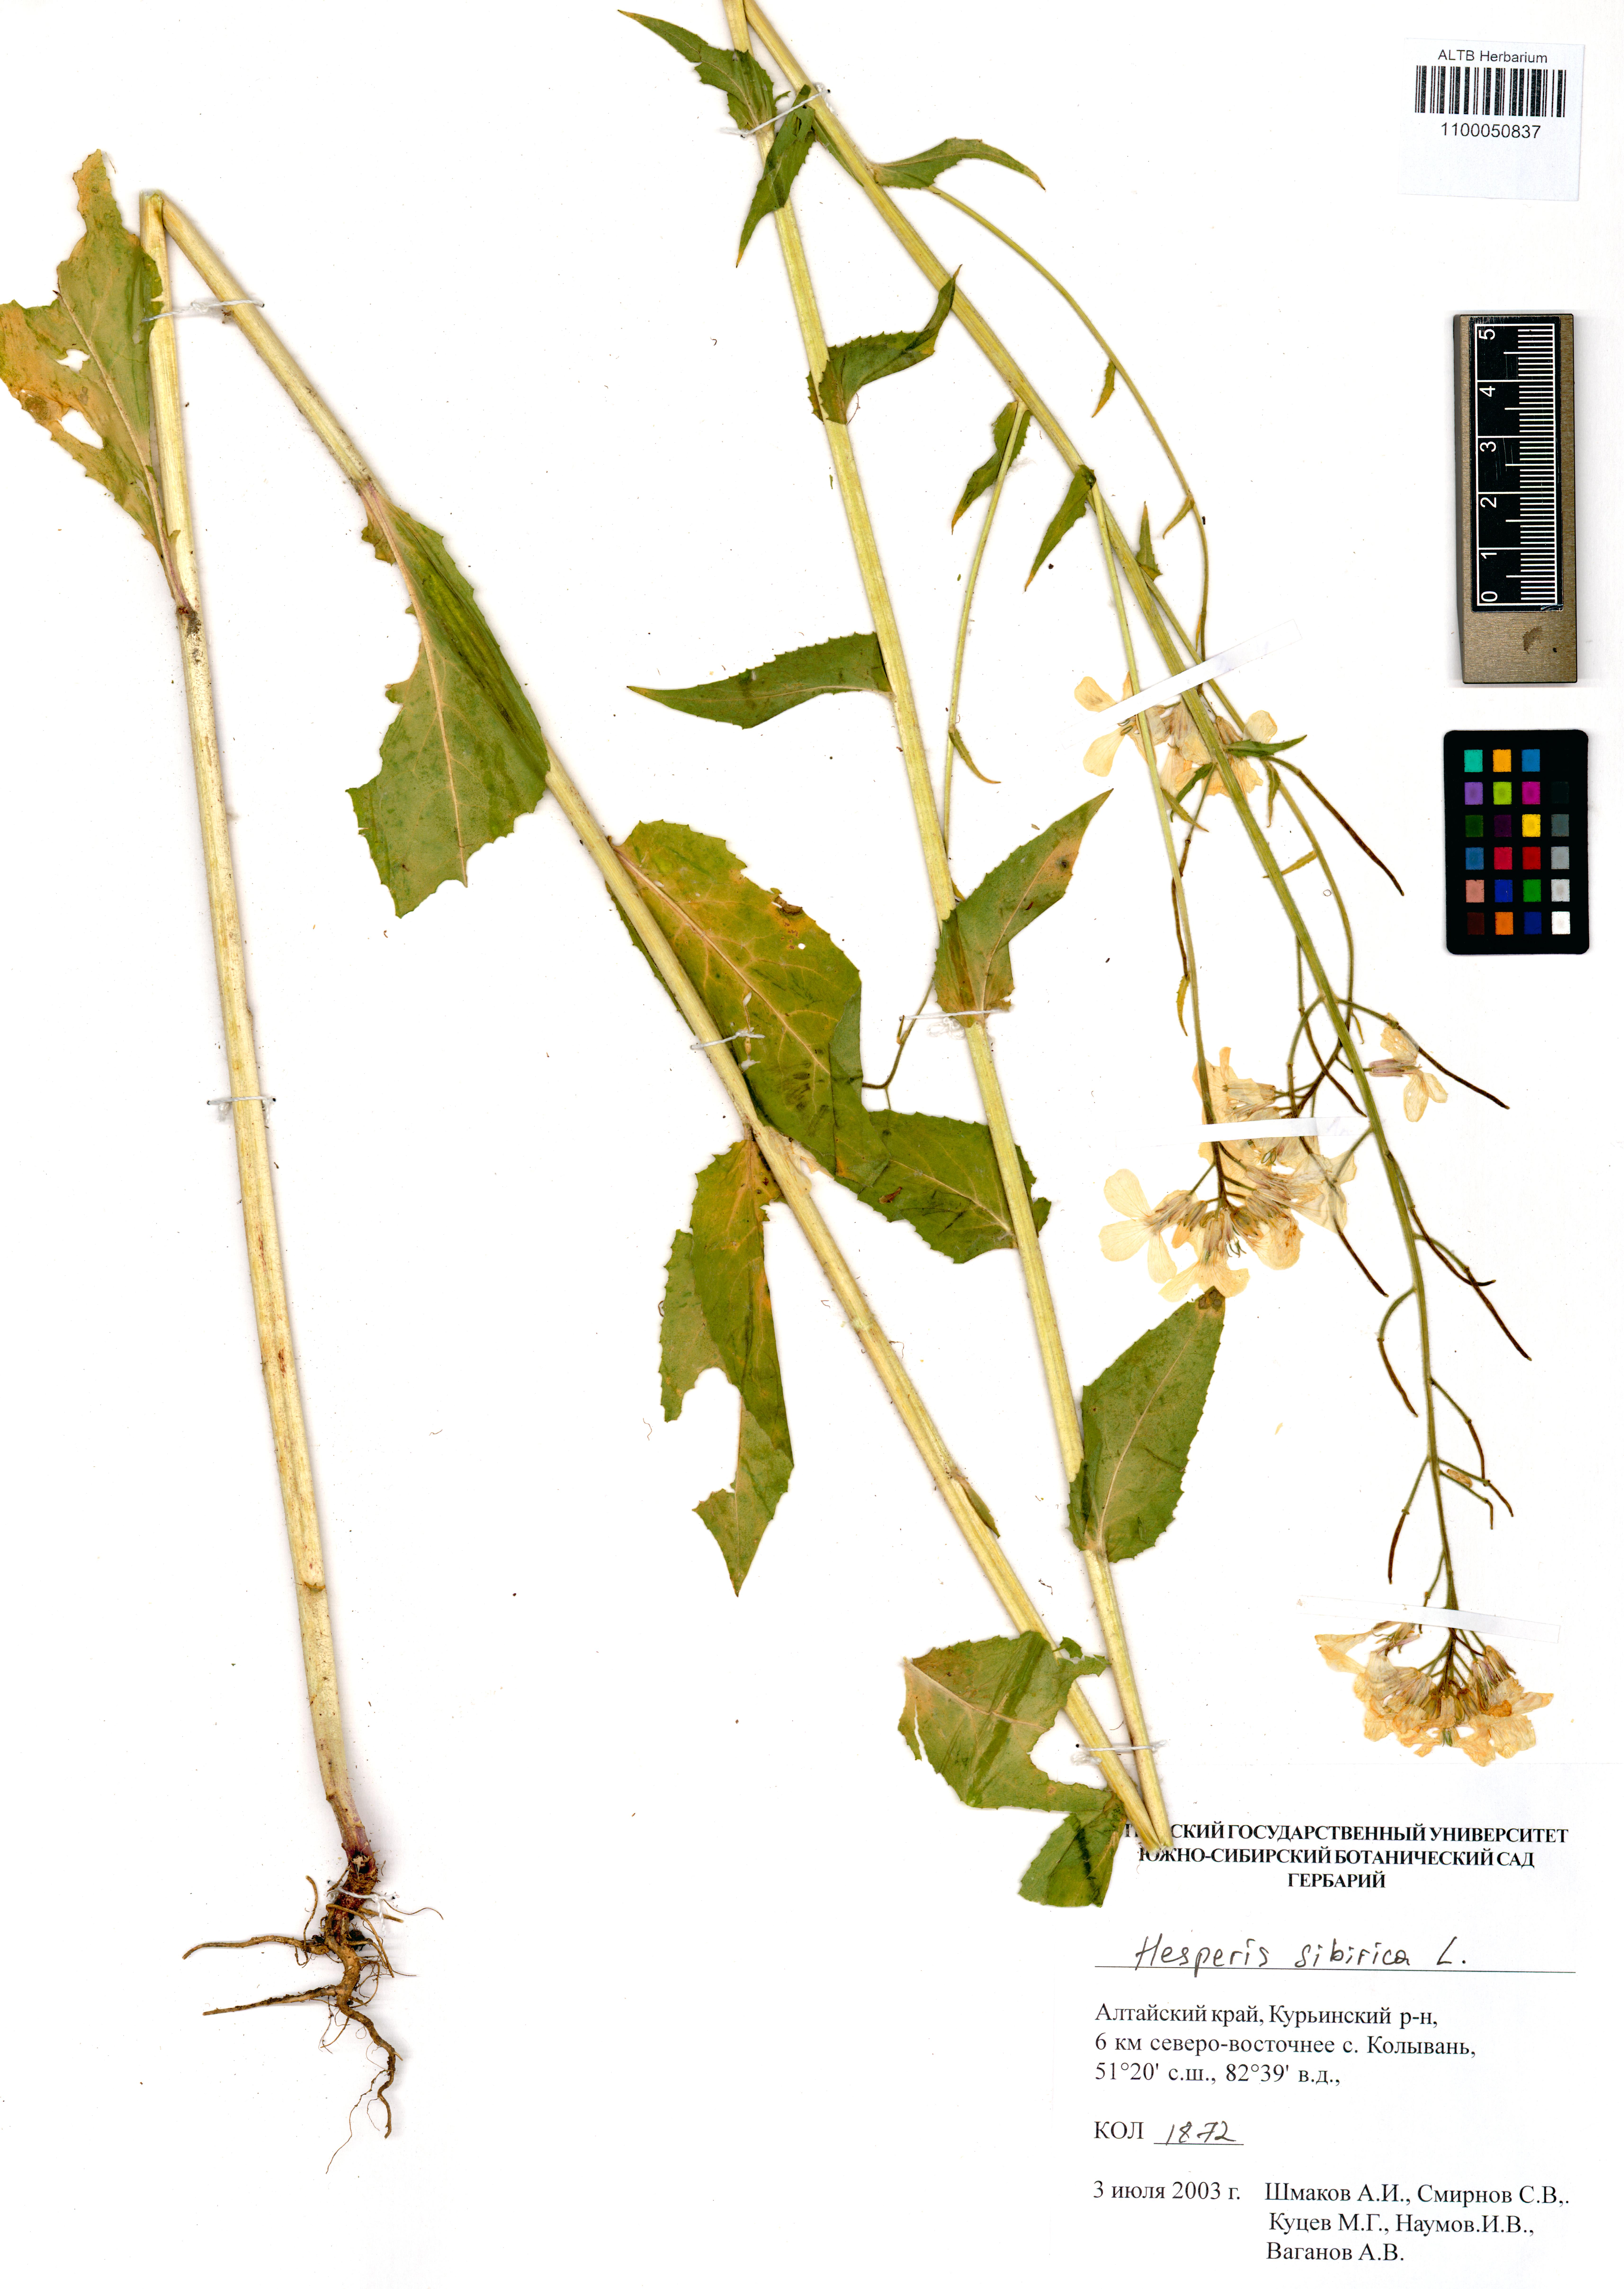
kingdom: Plantae
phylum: Tracheophyta
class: Magnoliopsida
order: Brassicales
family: Brassicaceae
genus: Hesperis
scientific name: Hesperis sibirica
